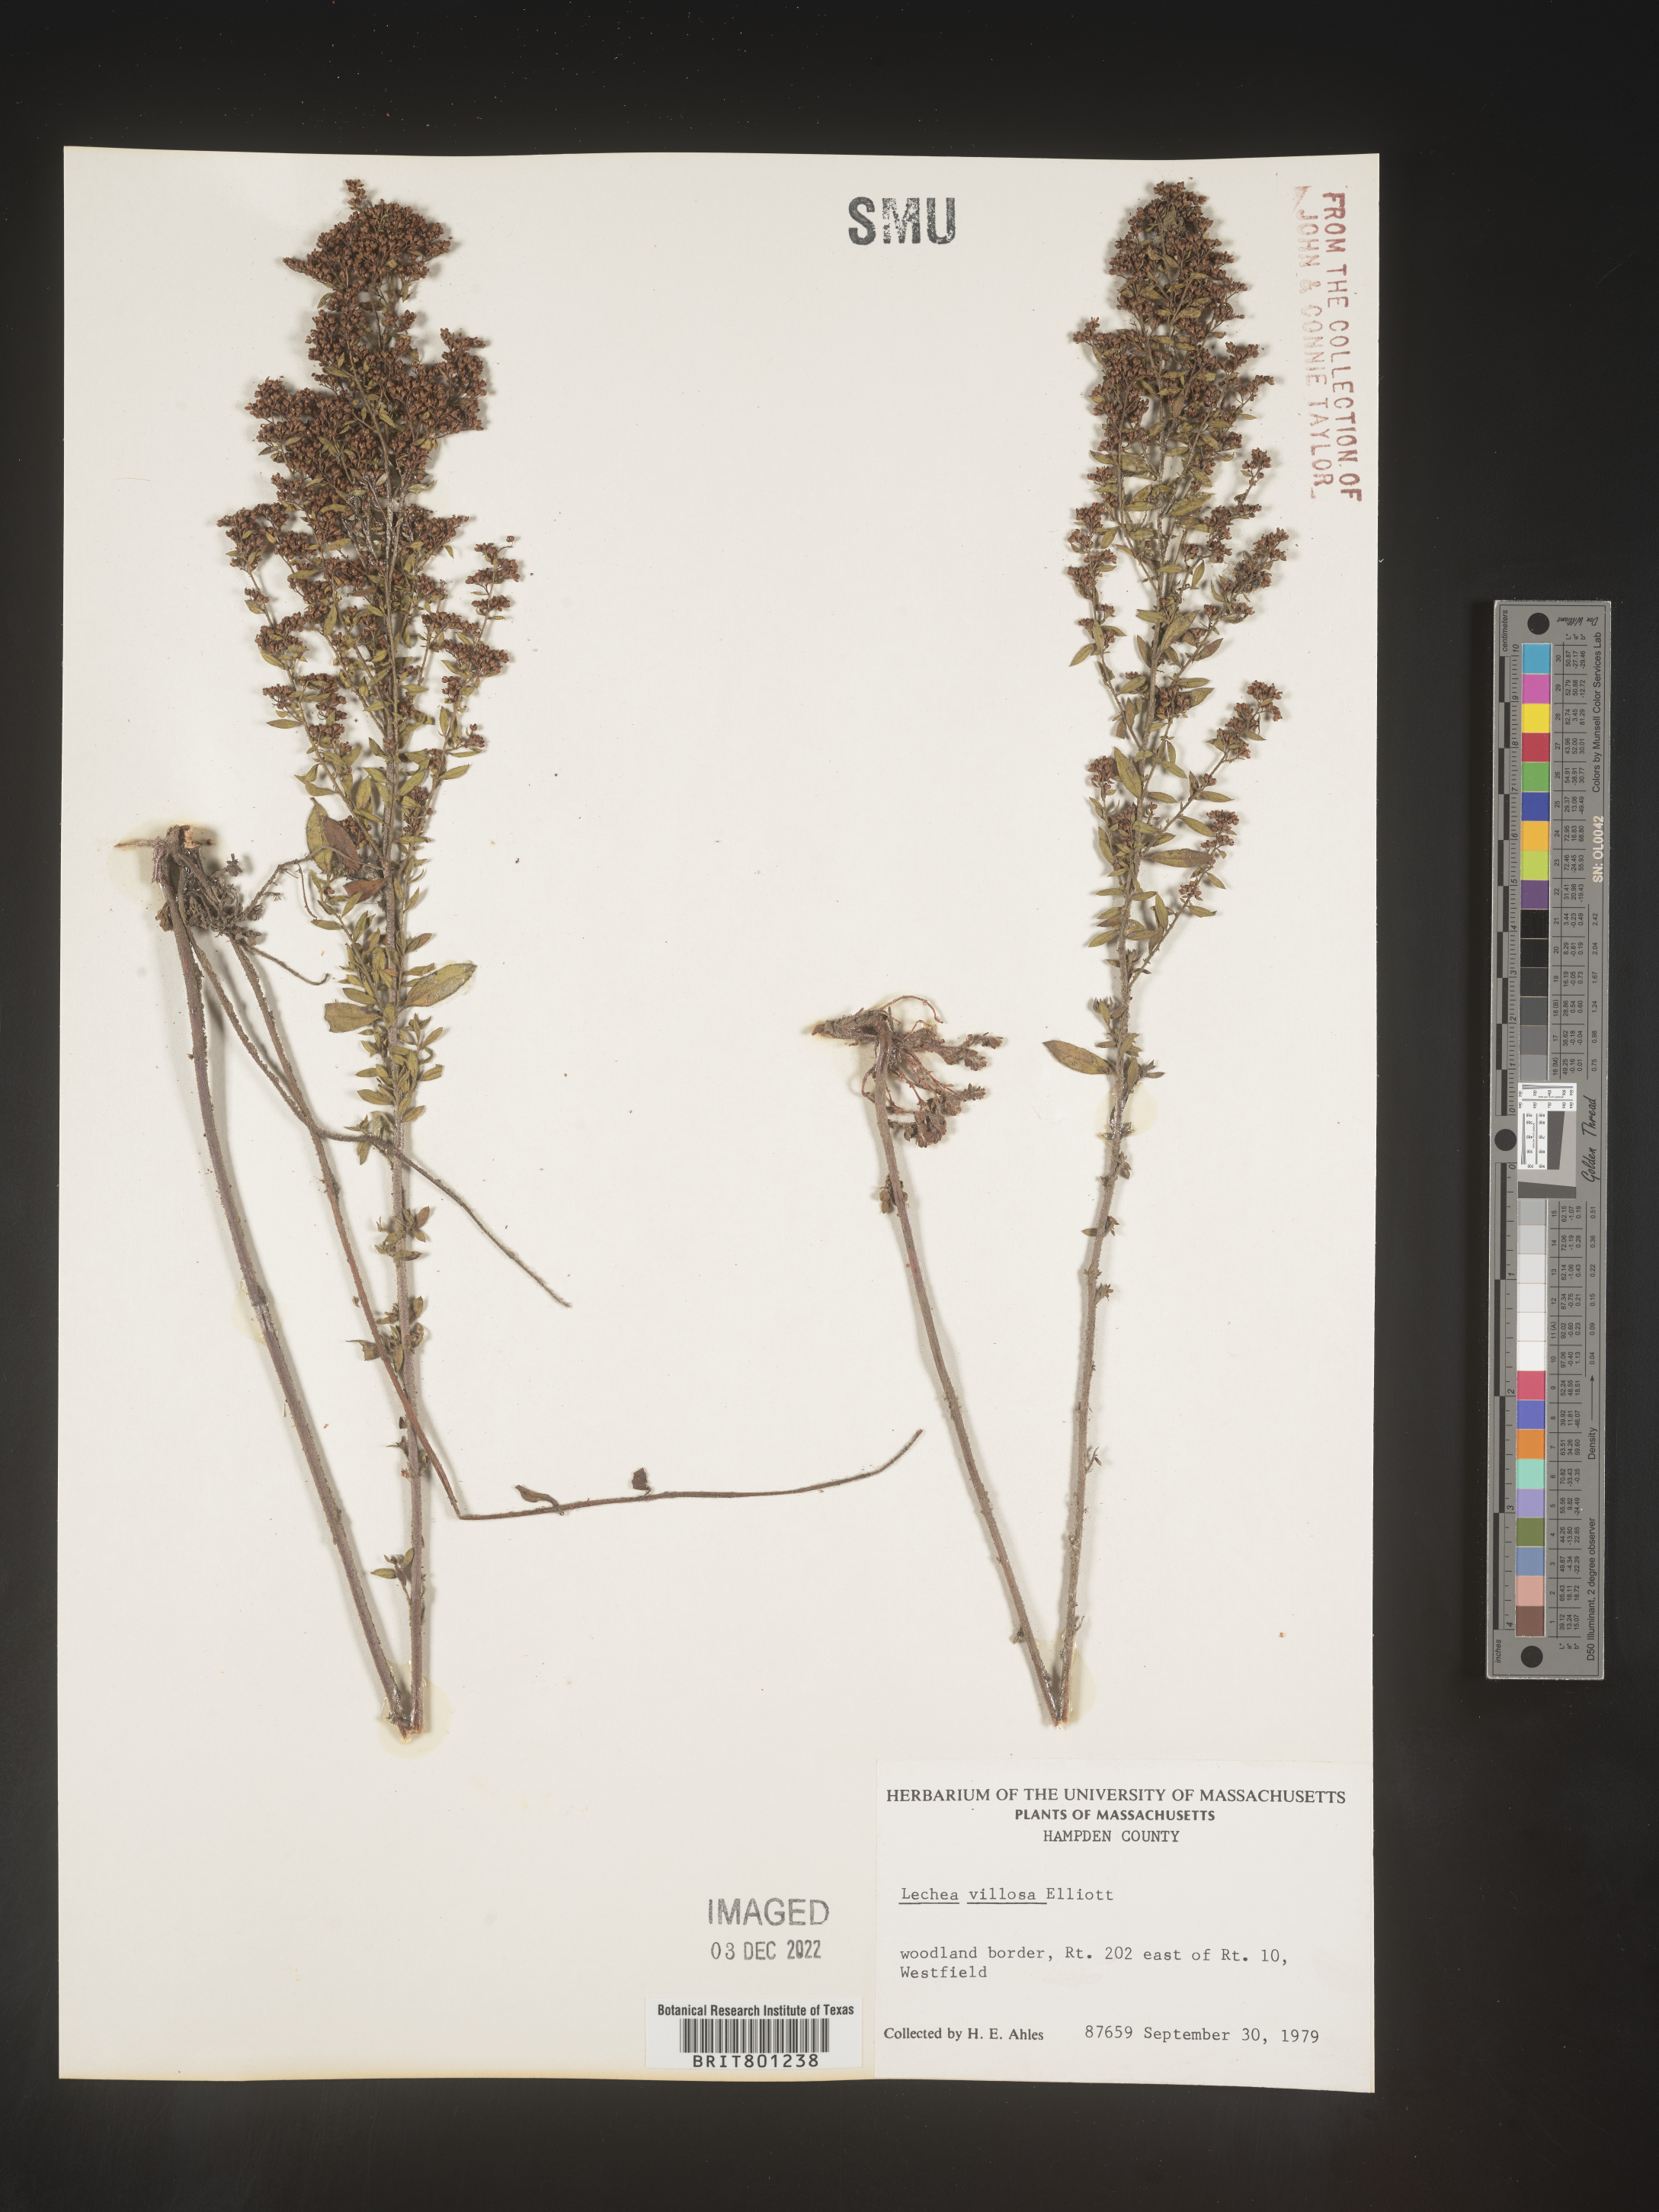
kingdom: Plantae
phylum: Tracheophyta
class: Magnoliopsida
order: Malvales
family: Cistaceae
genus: Lechea
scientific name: Lechea mucronata
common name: Hairy pinweed
